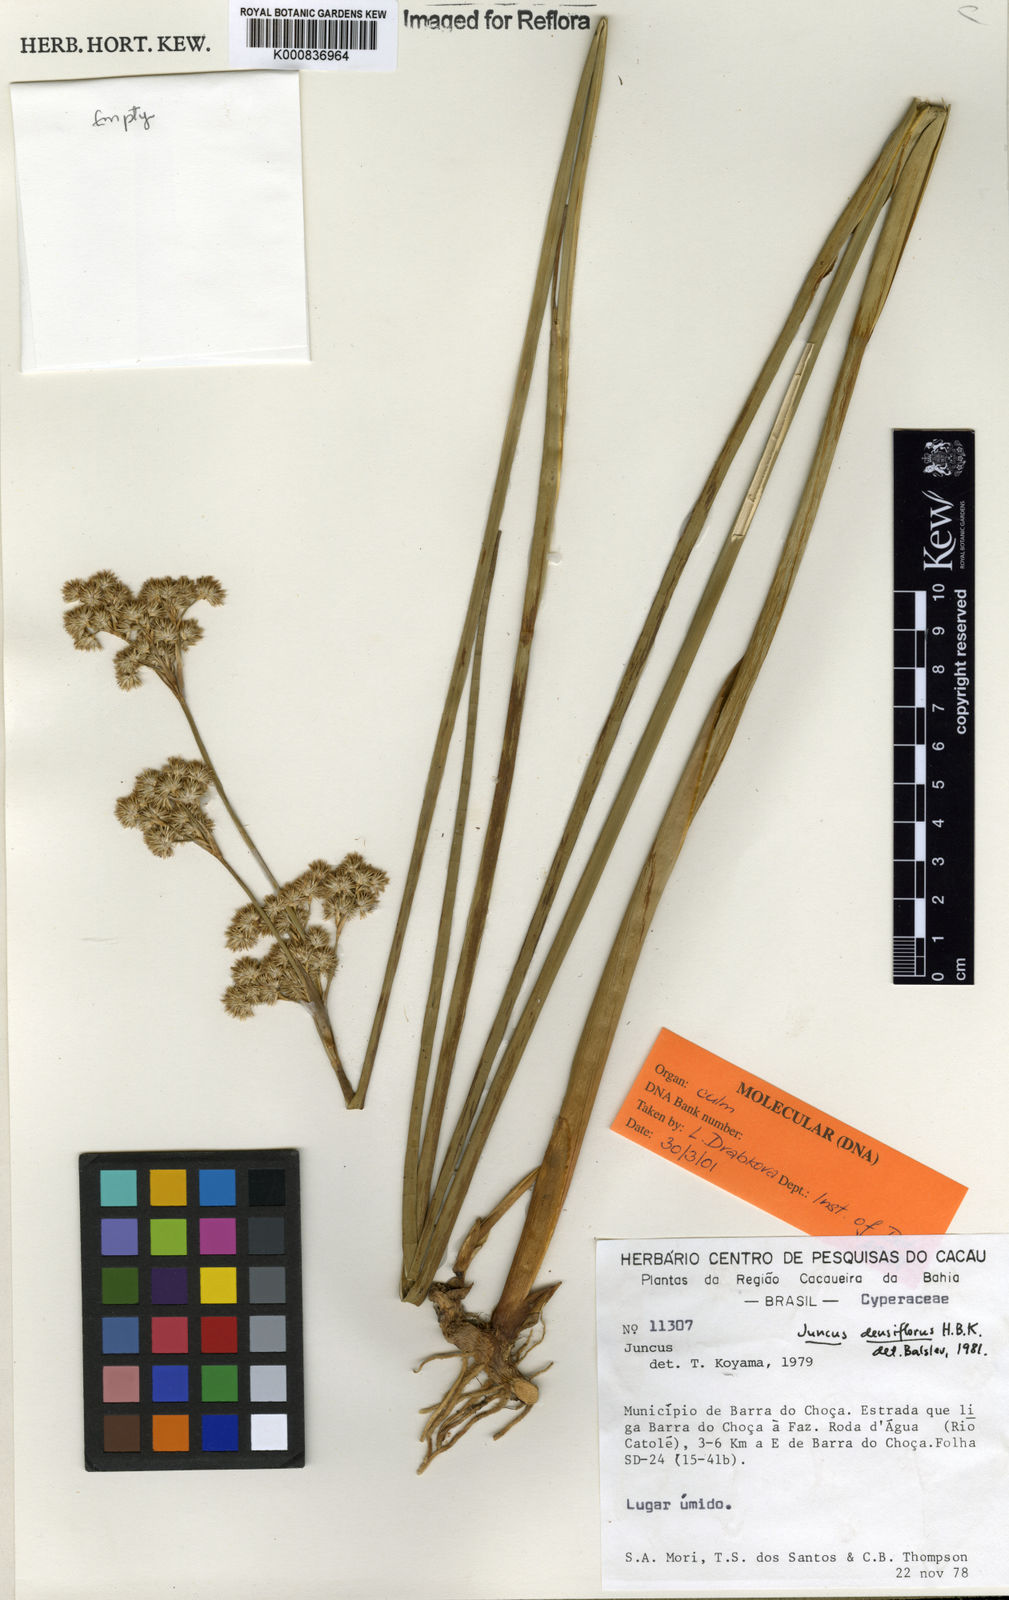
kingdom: Plantae
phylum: Tracheophyta
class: Liliopsida
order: Poales
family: Juncaceae
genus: Juncus
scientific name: Juncus densiflorus
